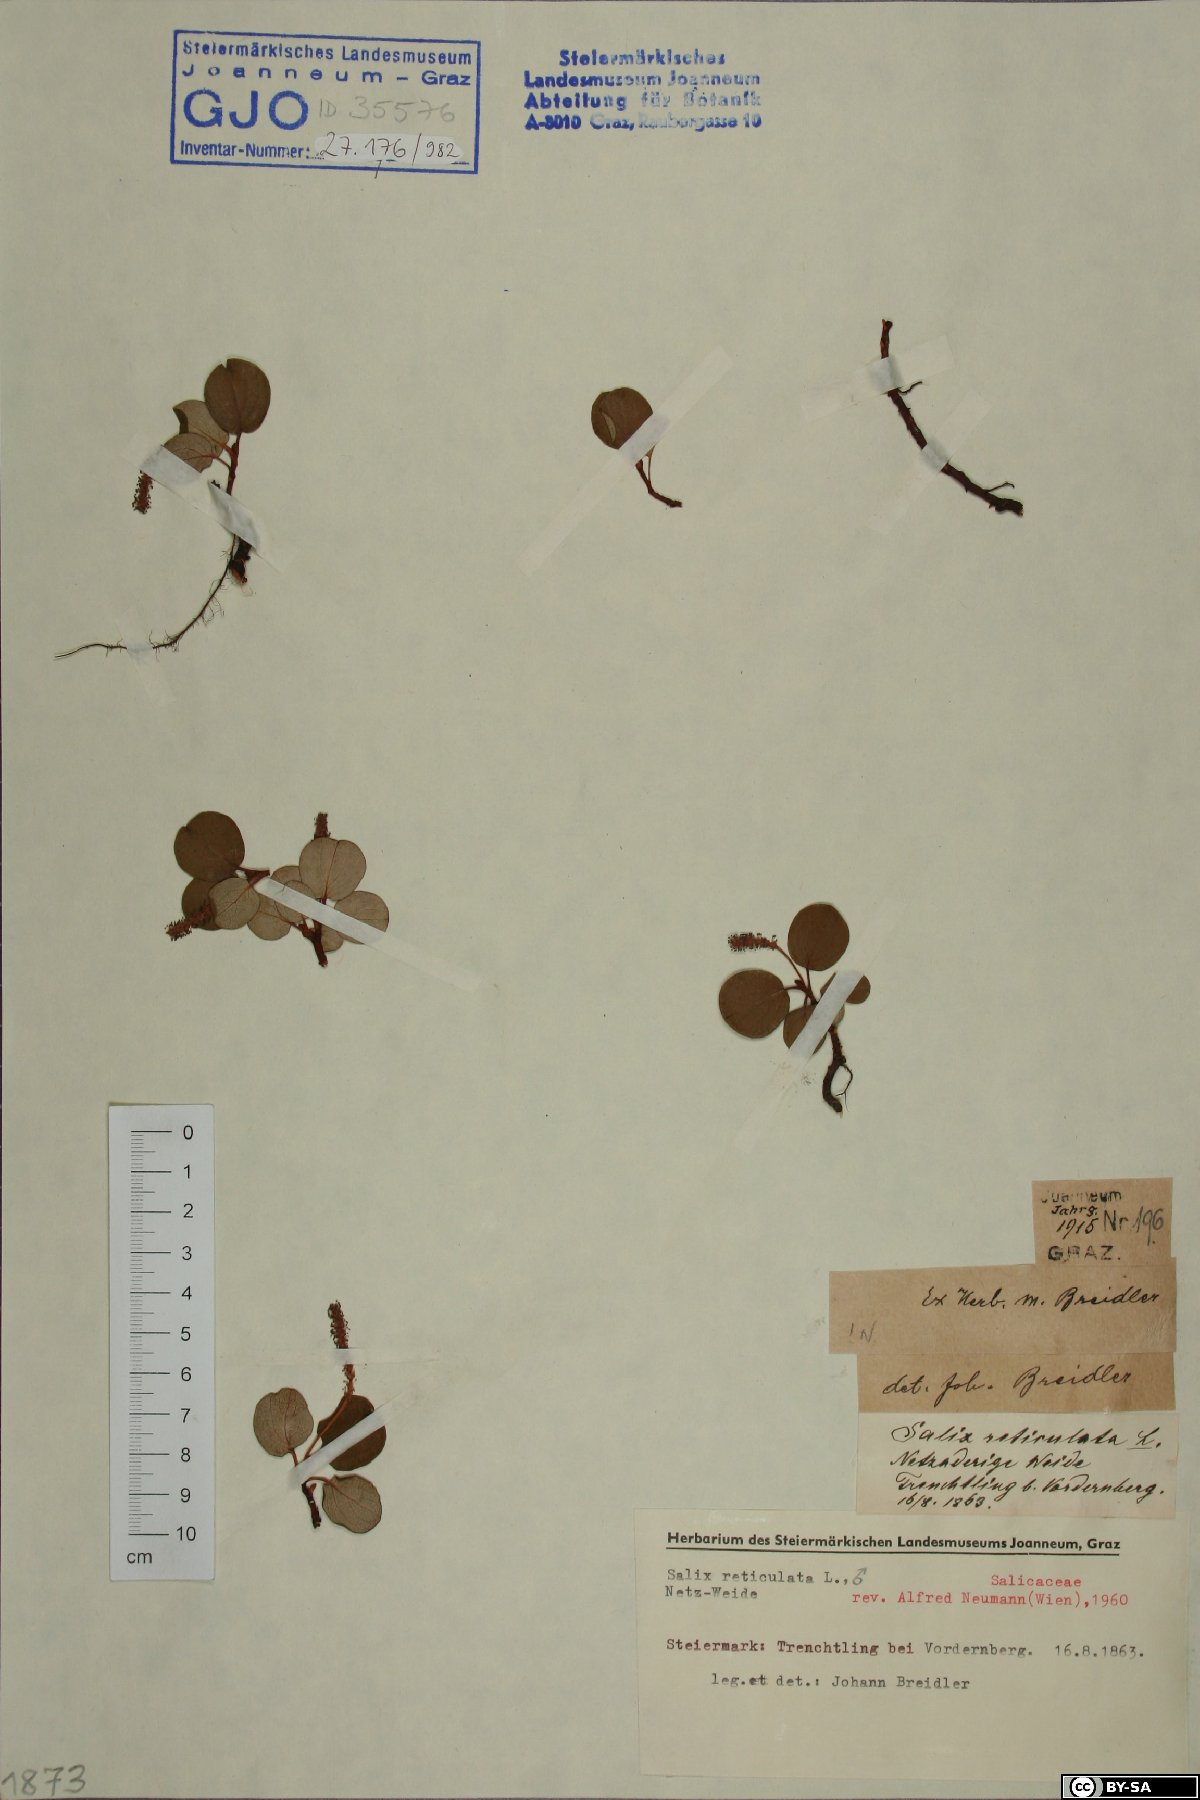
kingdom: Plantae
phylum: Tracheophyta
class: Magnoliopsida
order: Malpighiales
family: Salicaceae
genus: Salix
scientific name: Salix reticulata
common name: Net-leaved willow
